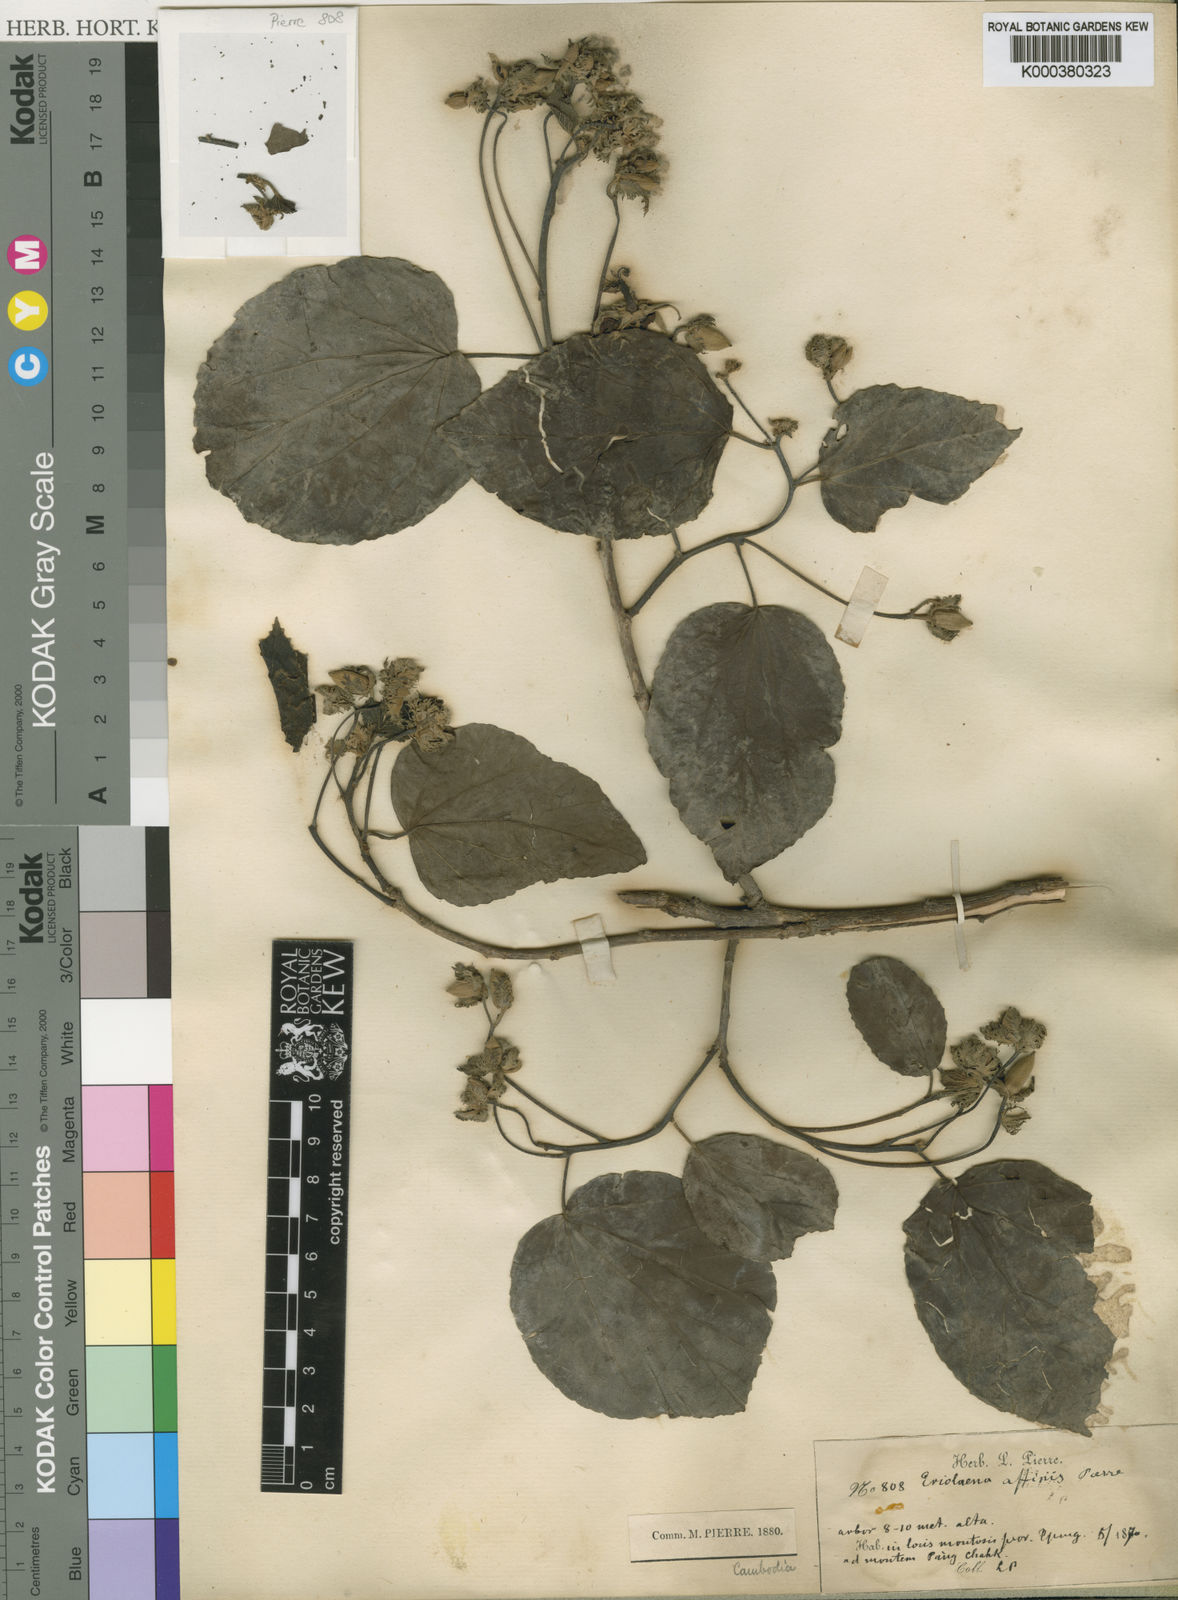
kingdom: Plantae
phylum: Tracheophyta
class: Magnoliopsida
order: Malvales
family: Malvaceae
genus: Eriolaena
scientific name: Eriolaena candollei
